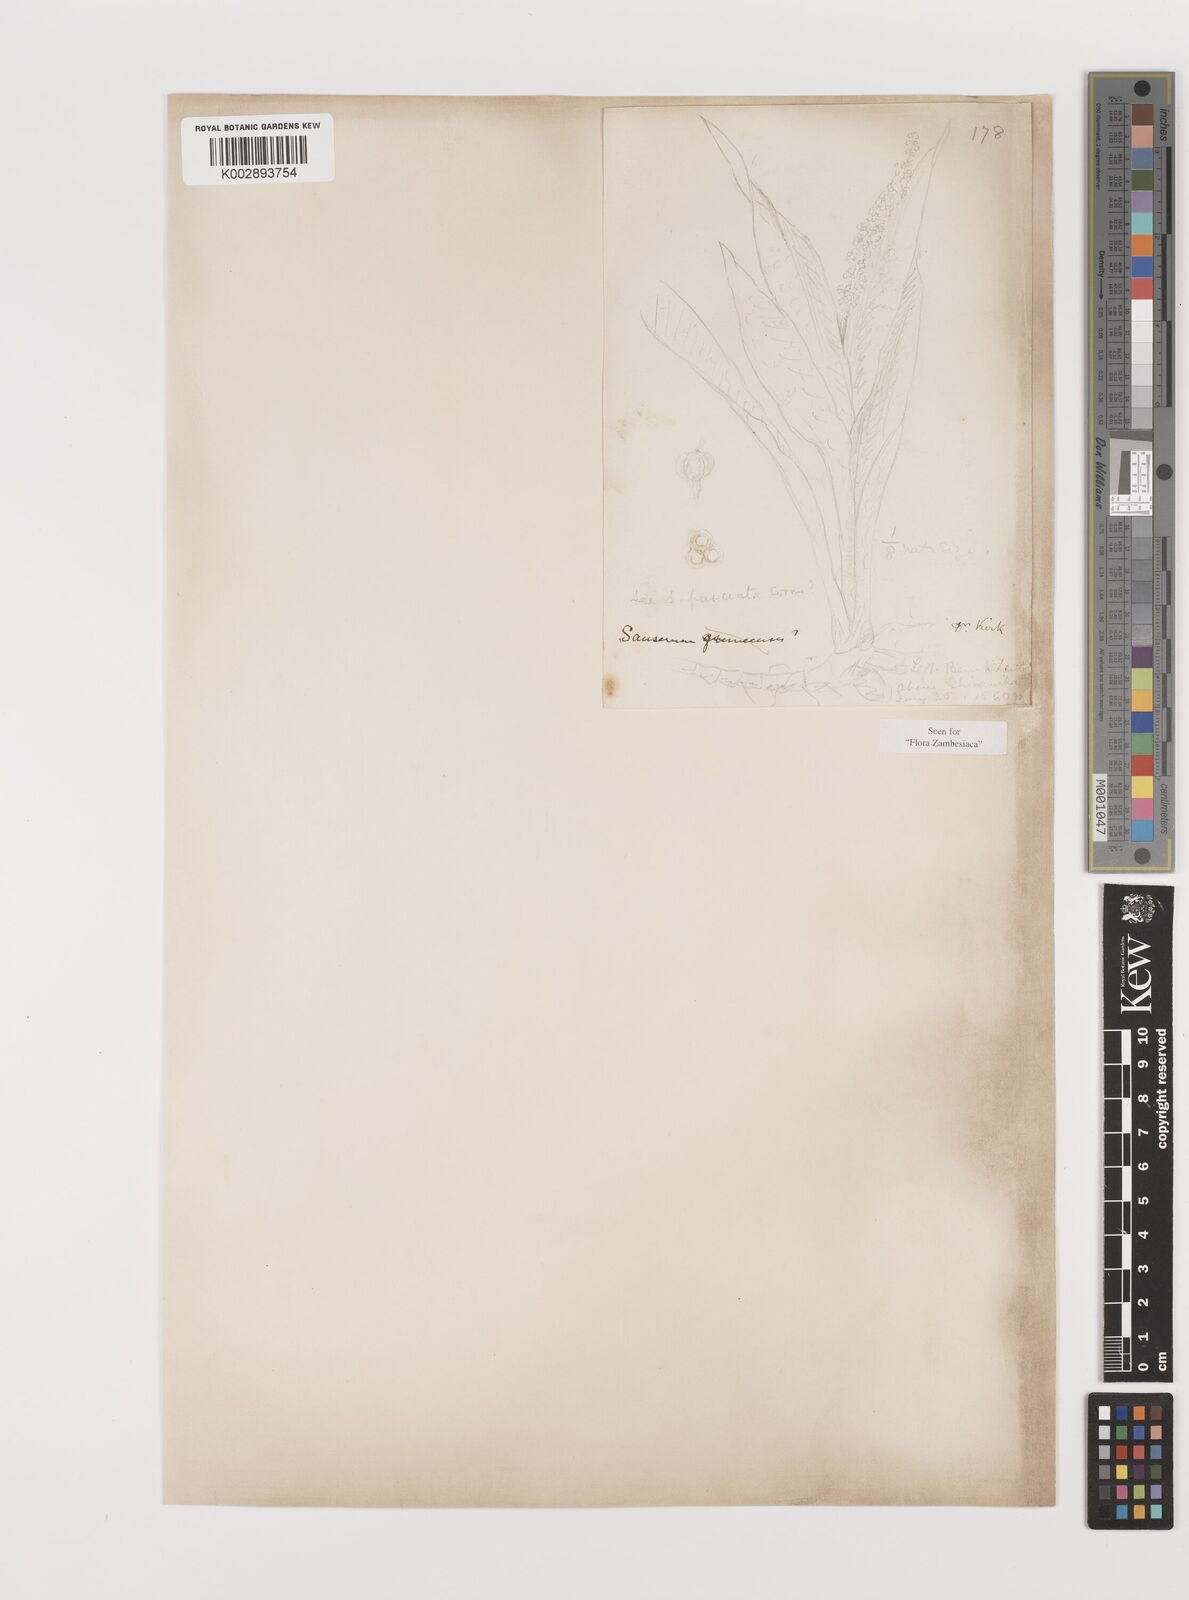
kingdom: Plantae
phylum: Tracheophyta
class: Liliopsida
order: Asparagales
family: Asparagaceae
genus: Dracaena
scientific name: Dracaena zebra
